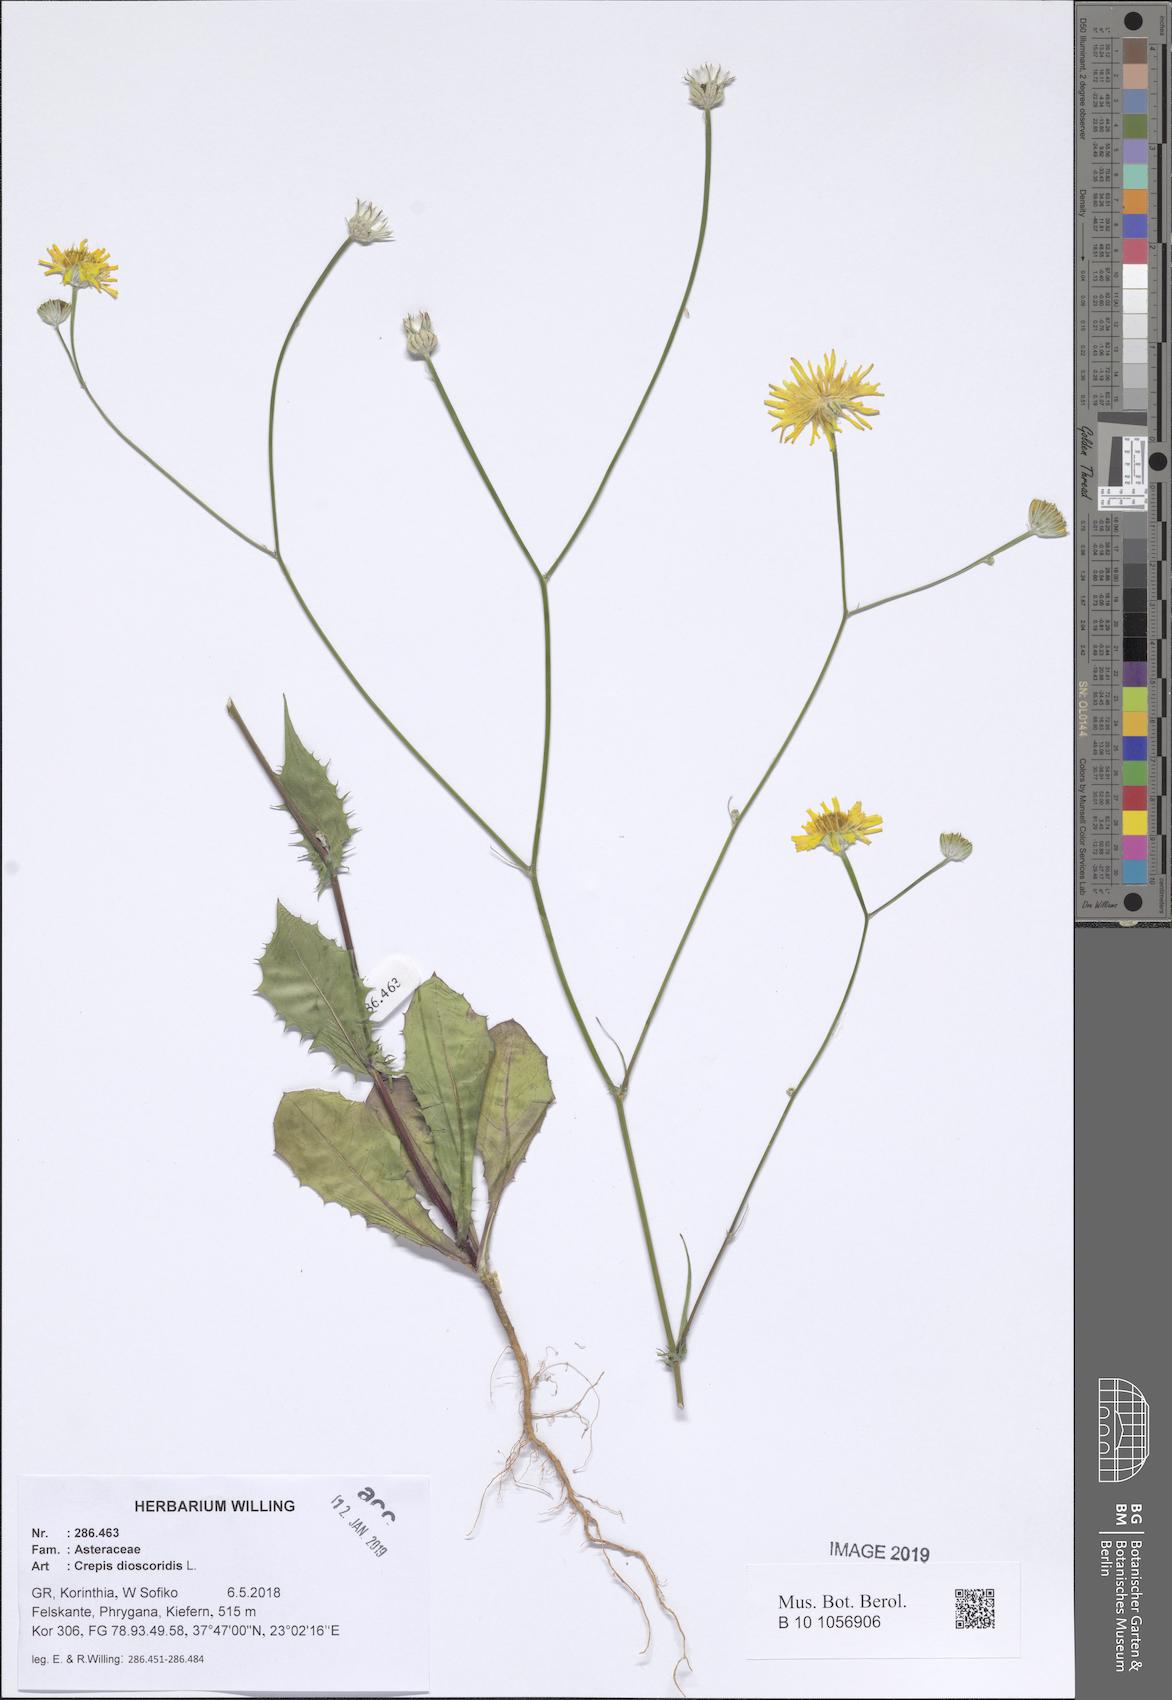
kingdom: Plantae
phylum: Tracheophyta
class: Magnoliopsida
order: Asterales
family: Asteraceae
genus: Crepis
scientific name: Crepis dioscoridis
